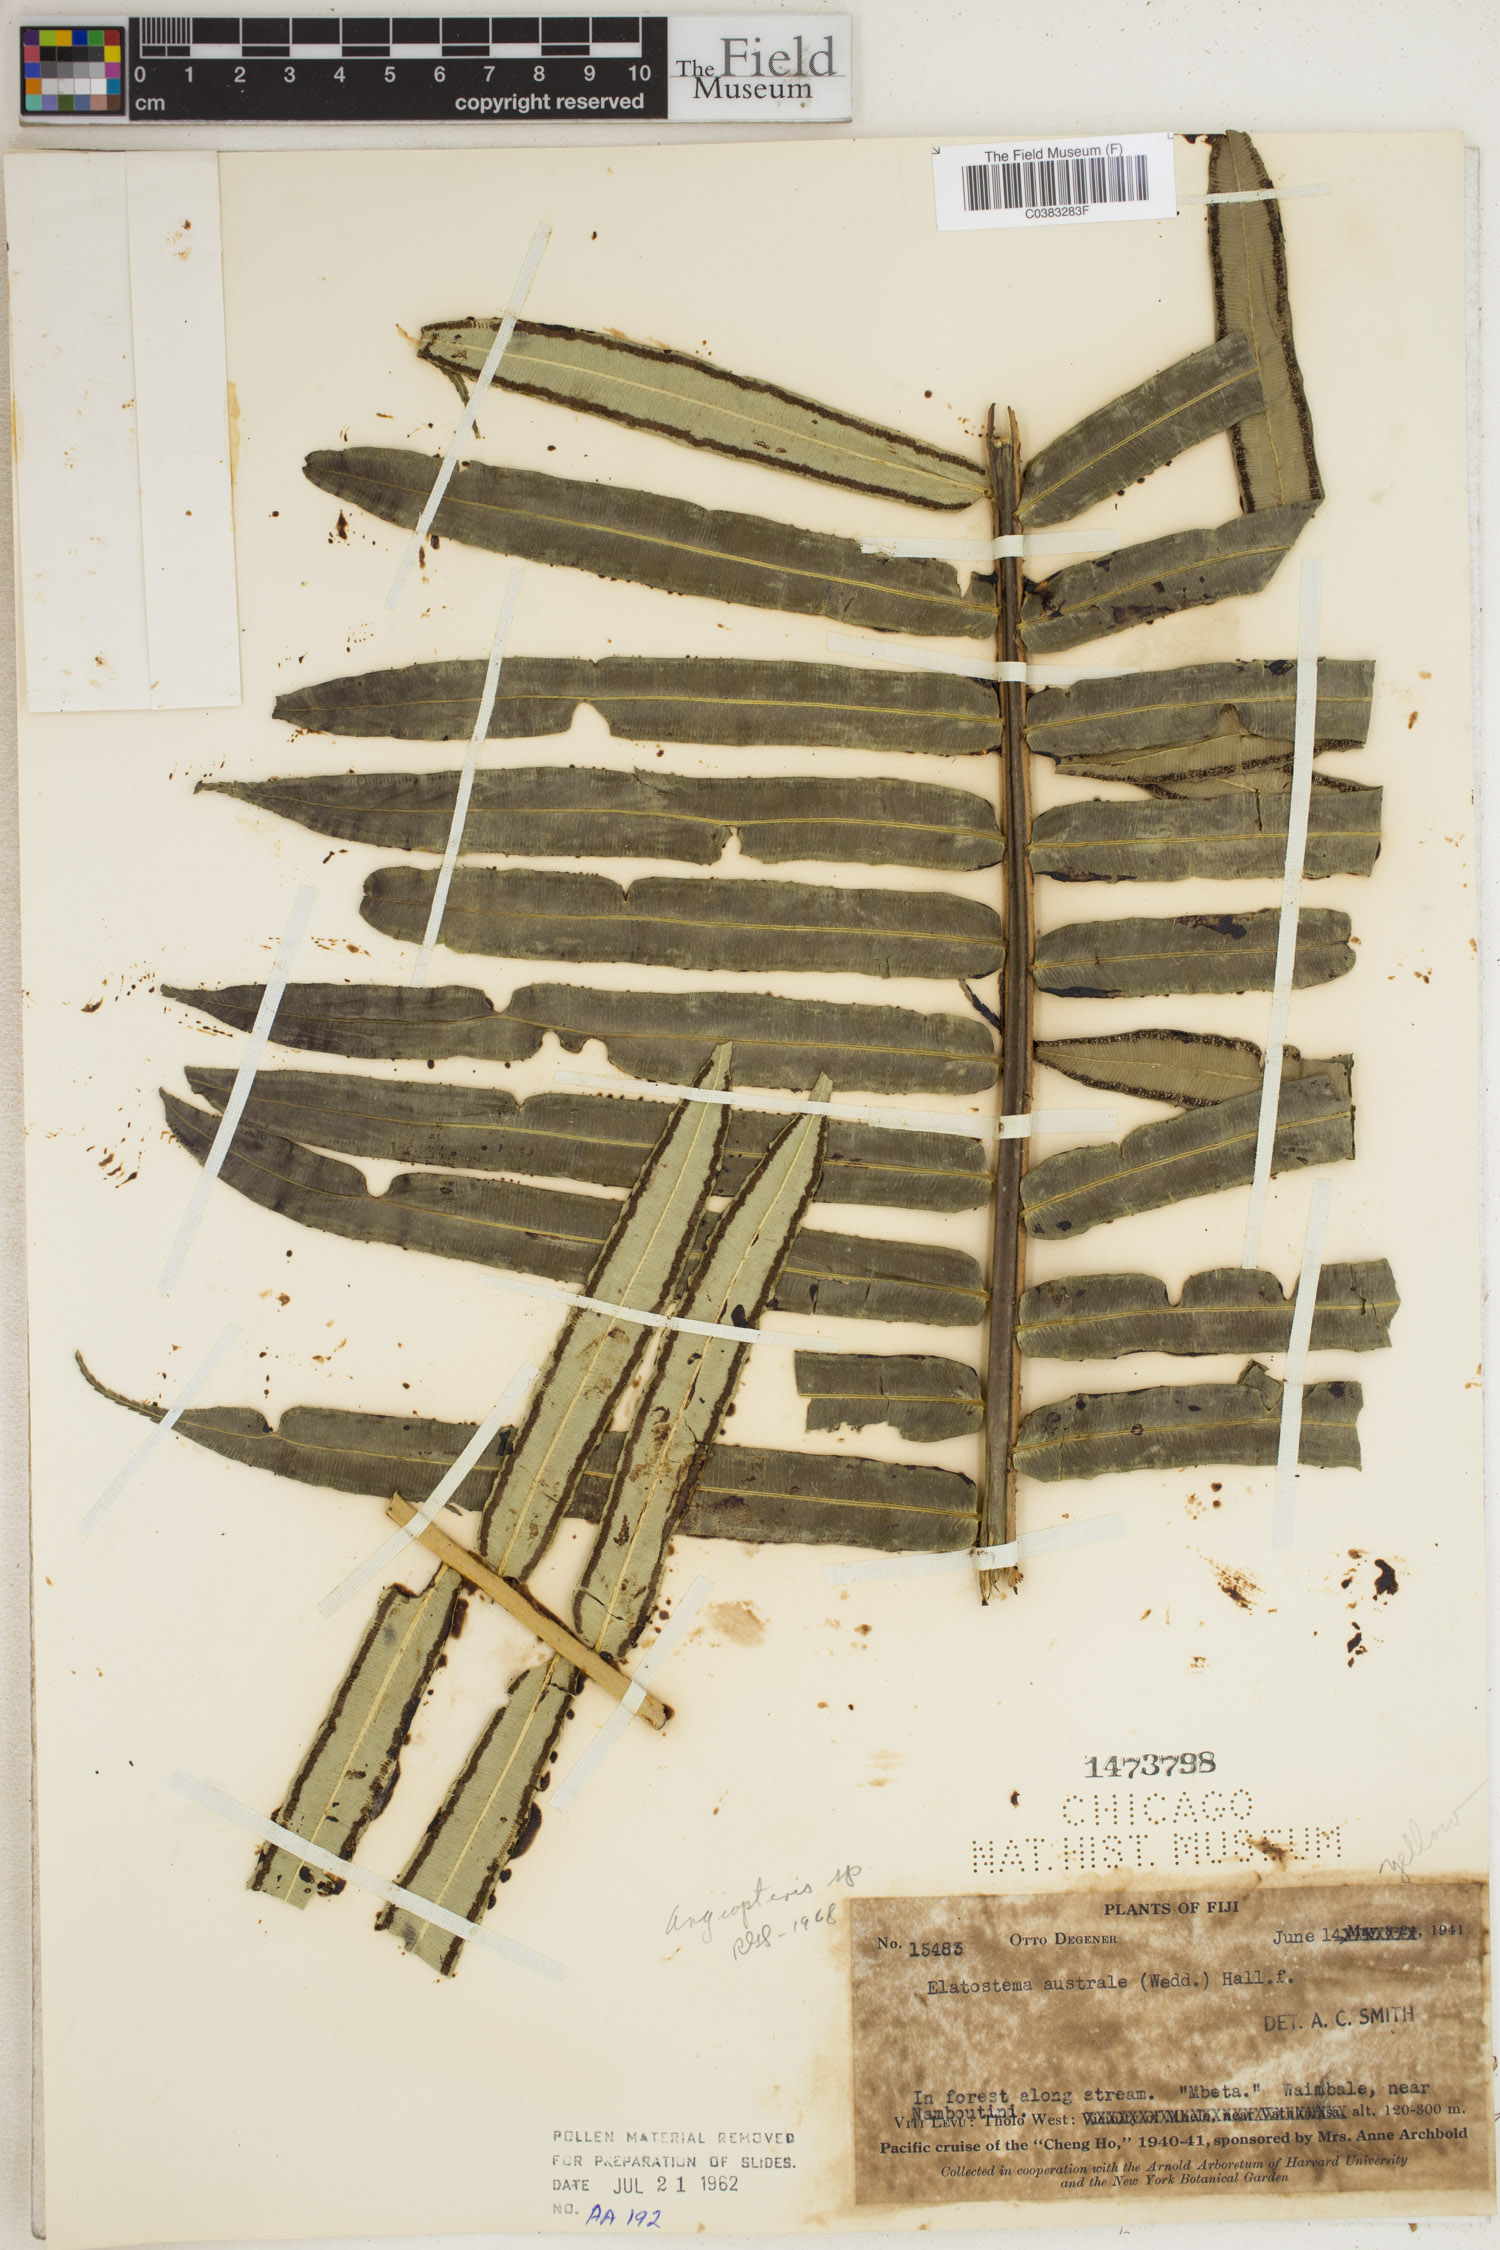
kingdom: Plantae
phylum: Tracheophyta
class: Polypodiopsida
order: Marattiales
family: Marattiaceae
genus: Angiopteris
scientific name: Angiopteris
